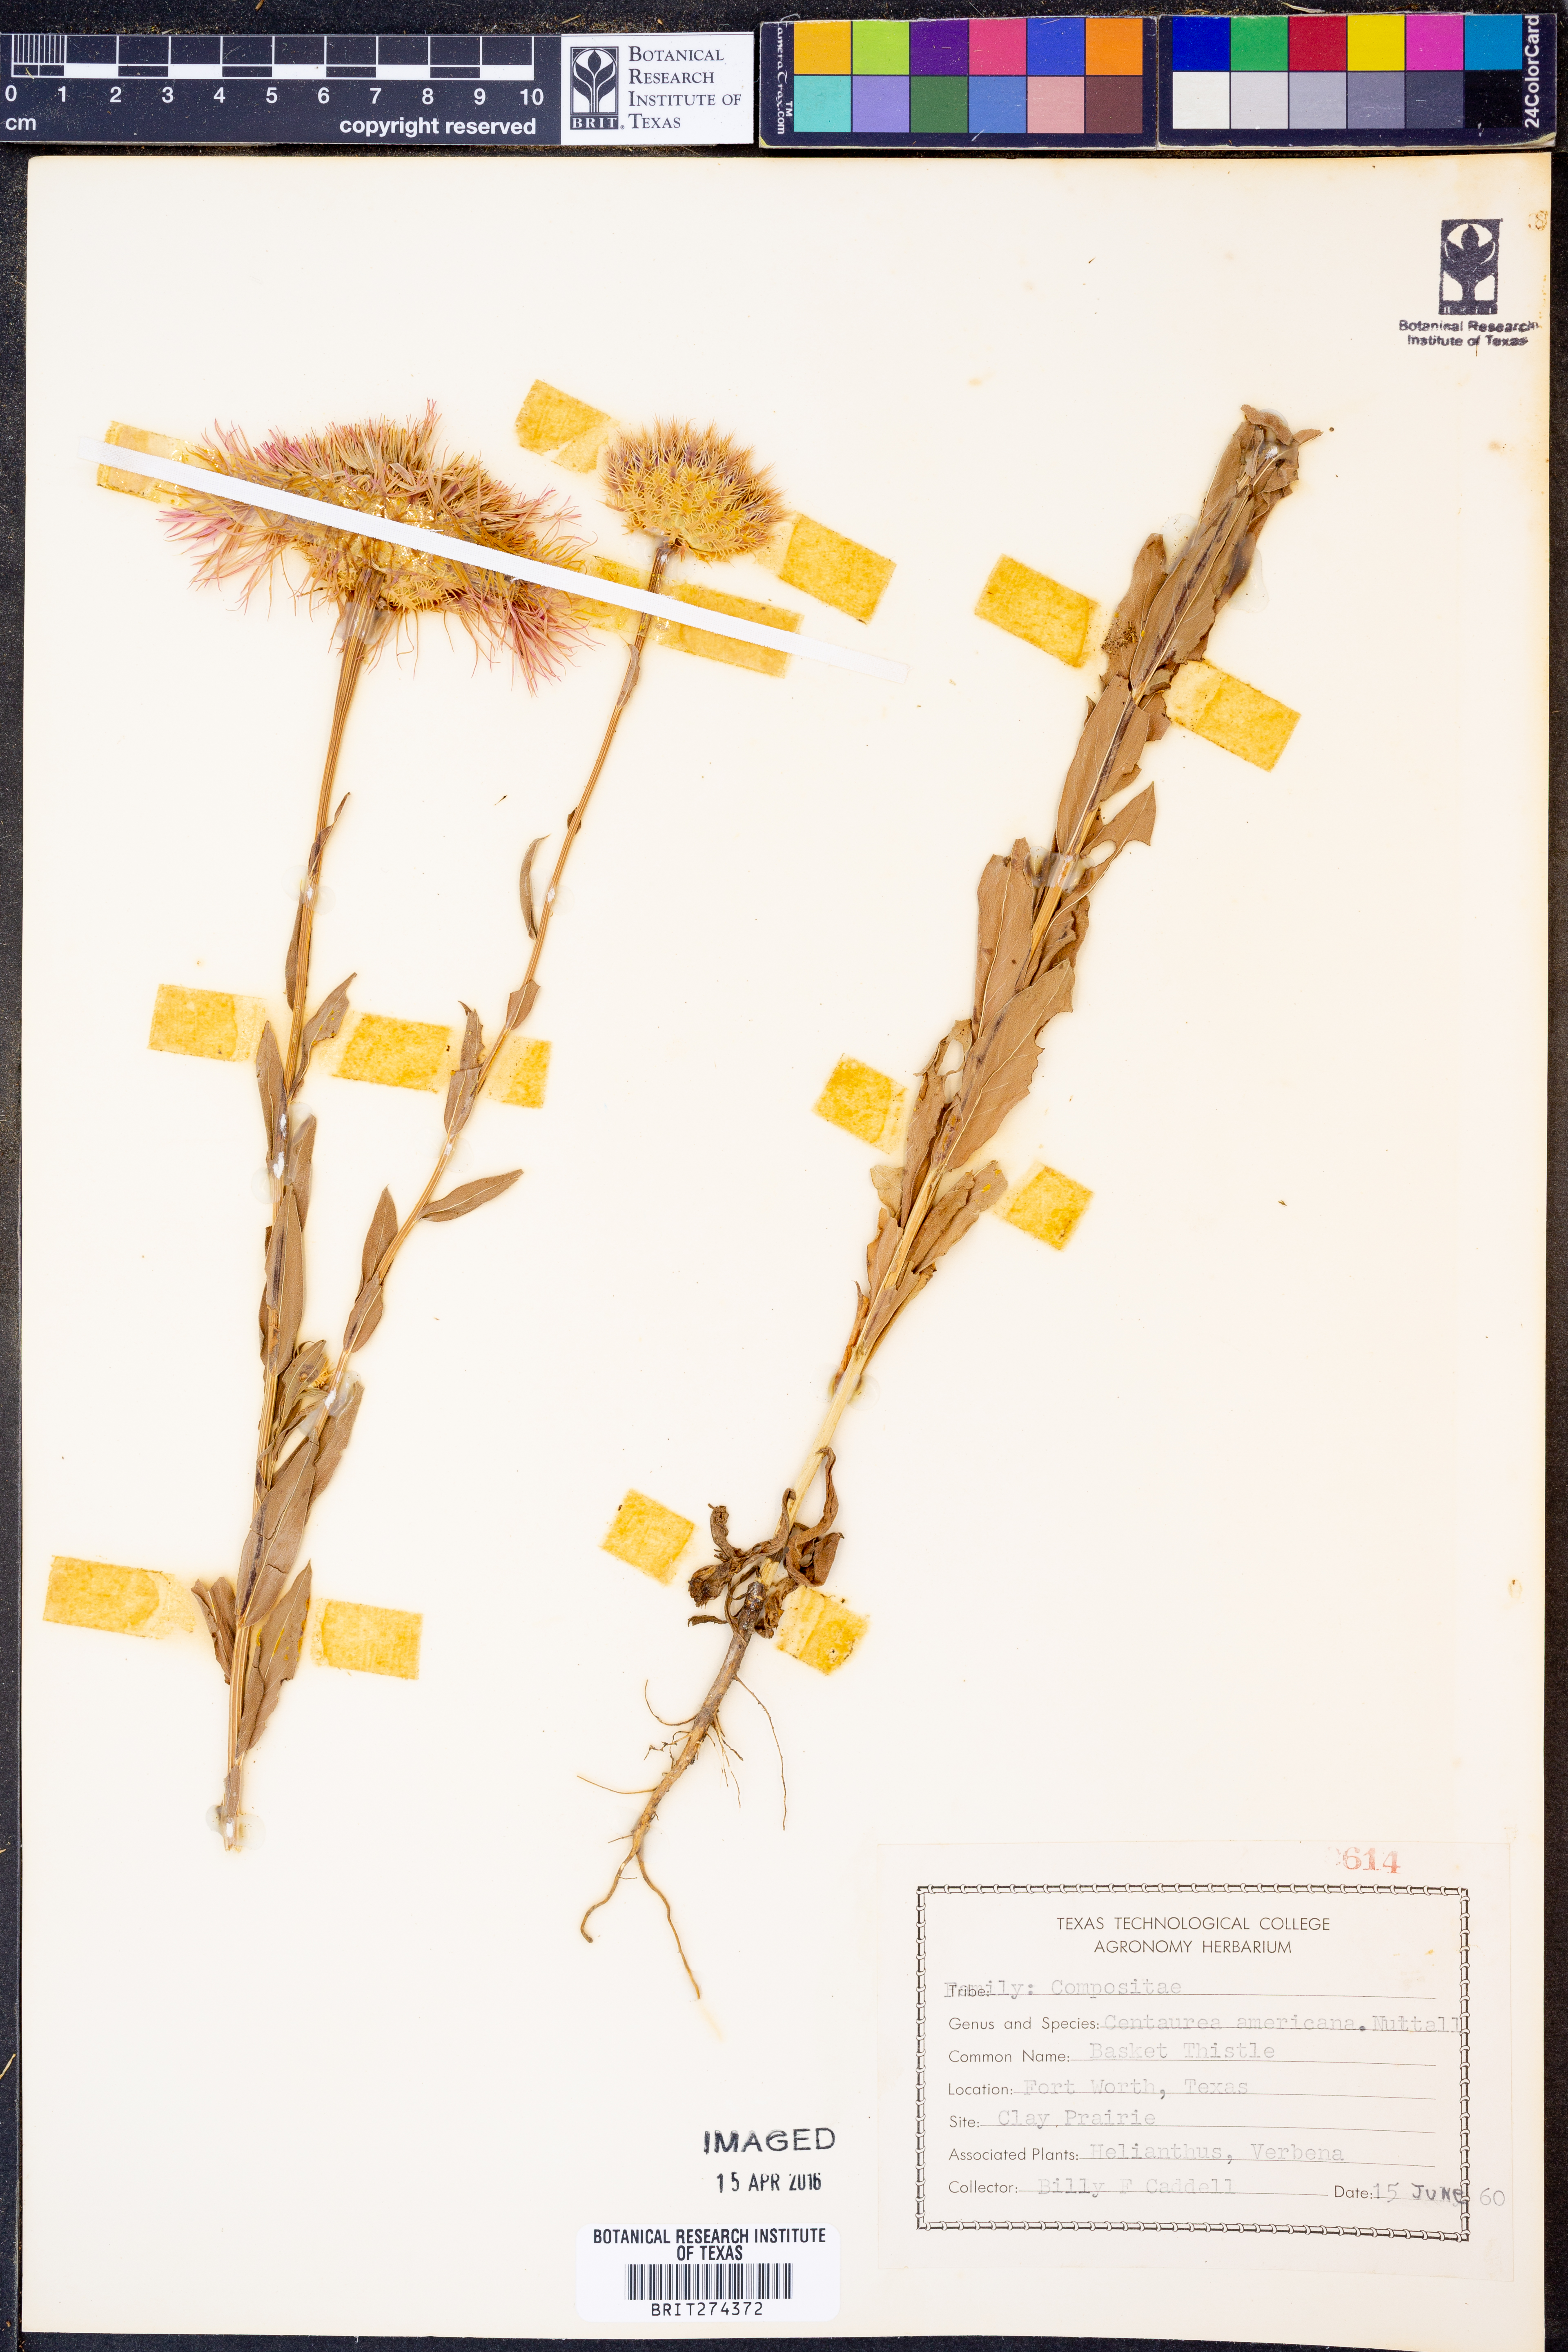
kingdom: Plantae
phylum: Tracheophyta
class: Magnoliopsida
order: Asterales
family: Asteraceae
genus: Plectocephalus
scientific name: Plectocephalus americanus
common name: American basket-flower
